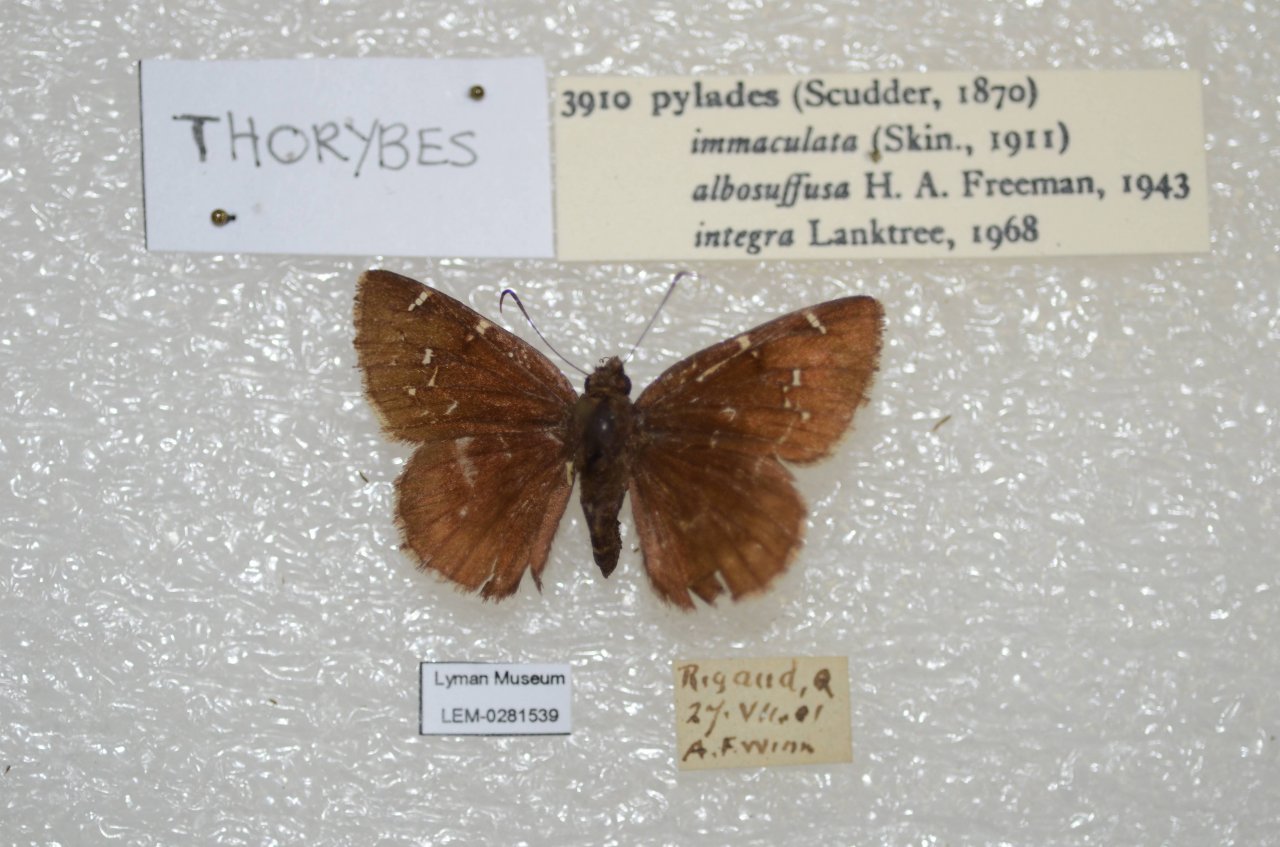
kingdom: Animalia
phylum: Arthropoda
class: Insecta
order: Lepidoptera
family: Hesperiidae
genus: Autochton
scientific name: Autochton
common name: Northern Cloudywing
